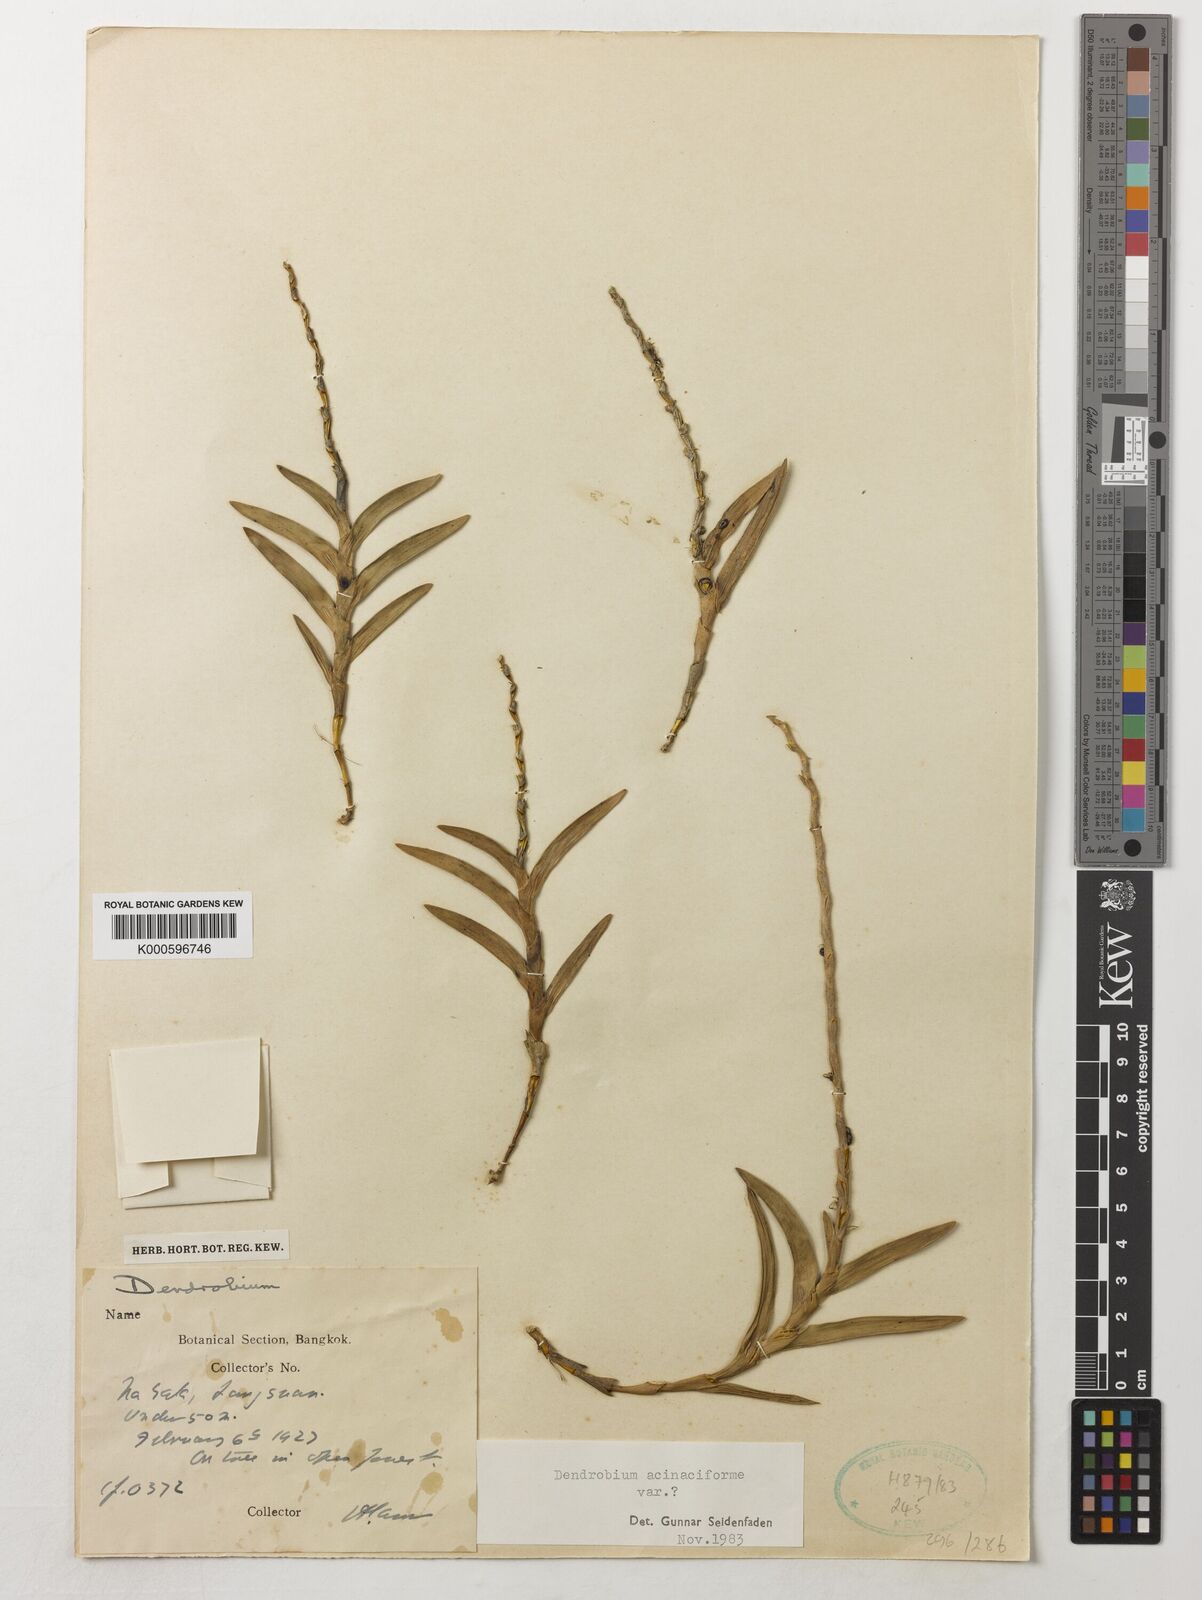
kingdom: Plantae
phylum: Tracheophyta
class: Liliopsida
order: Asparagales
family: Orchidaceae
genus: Dendrobium
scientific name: Dendrobium acinaciforme
